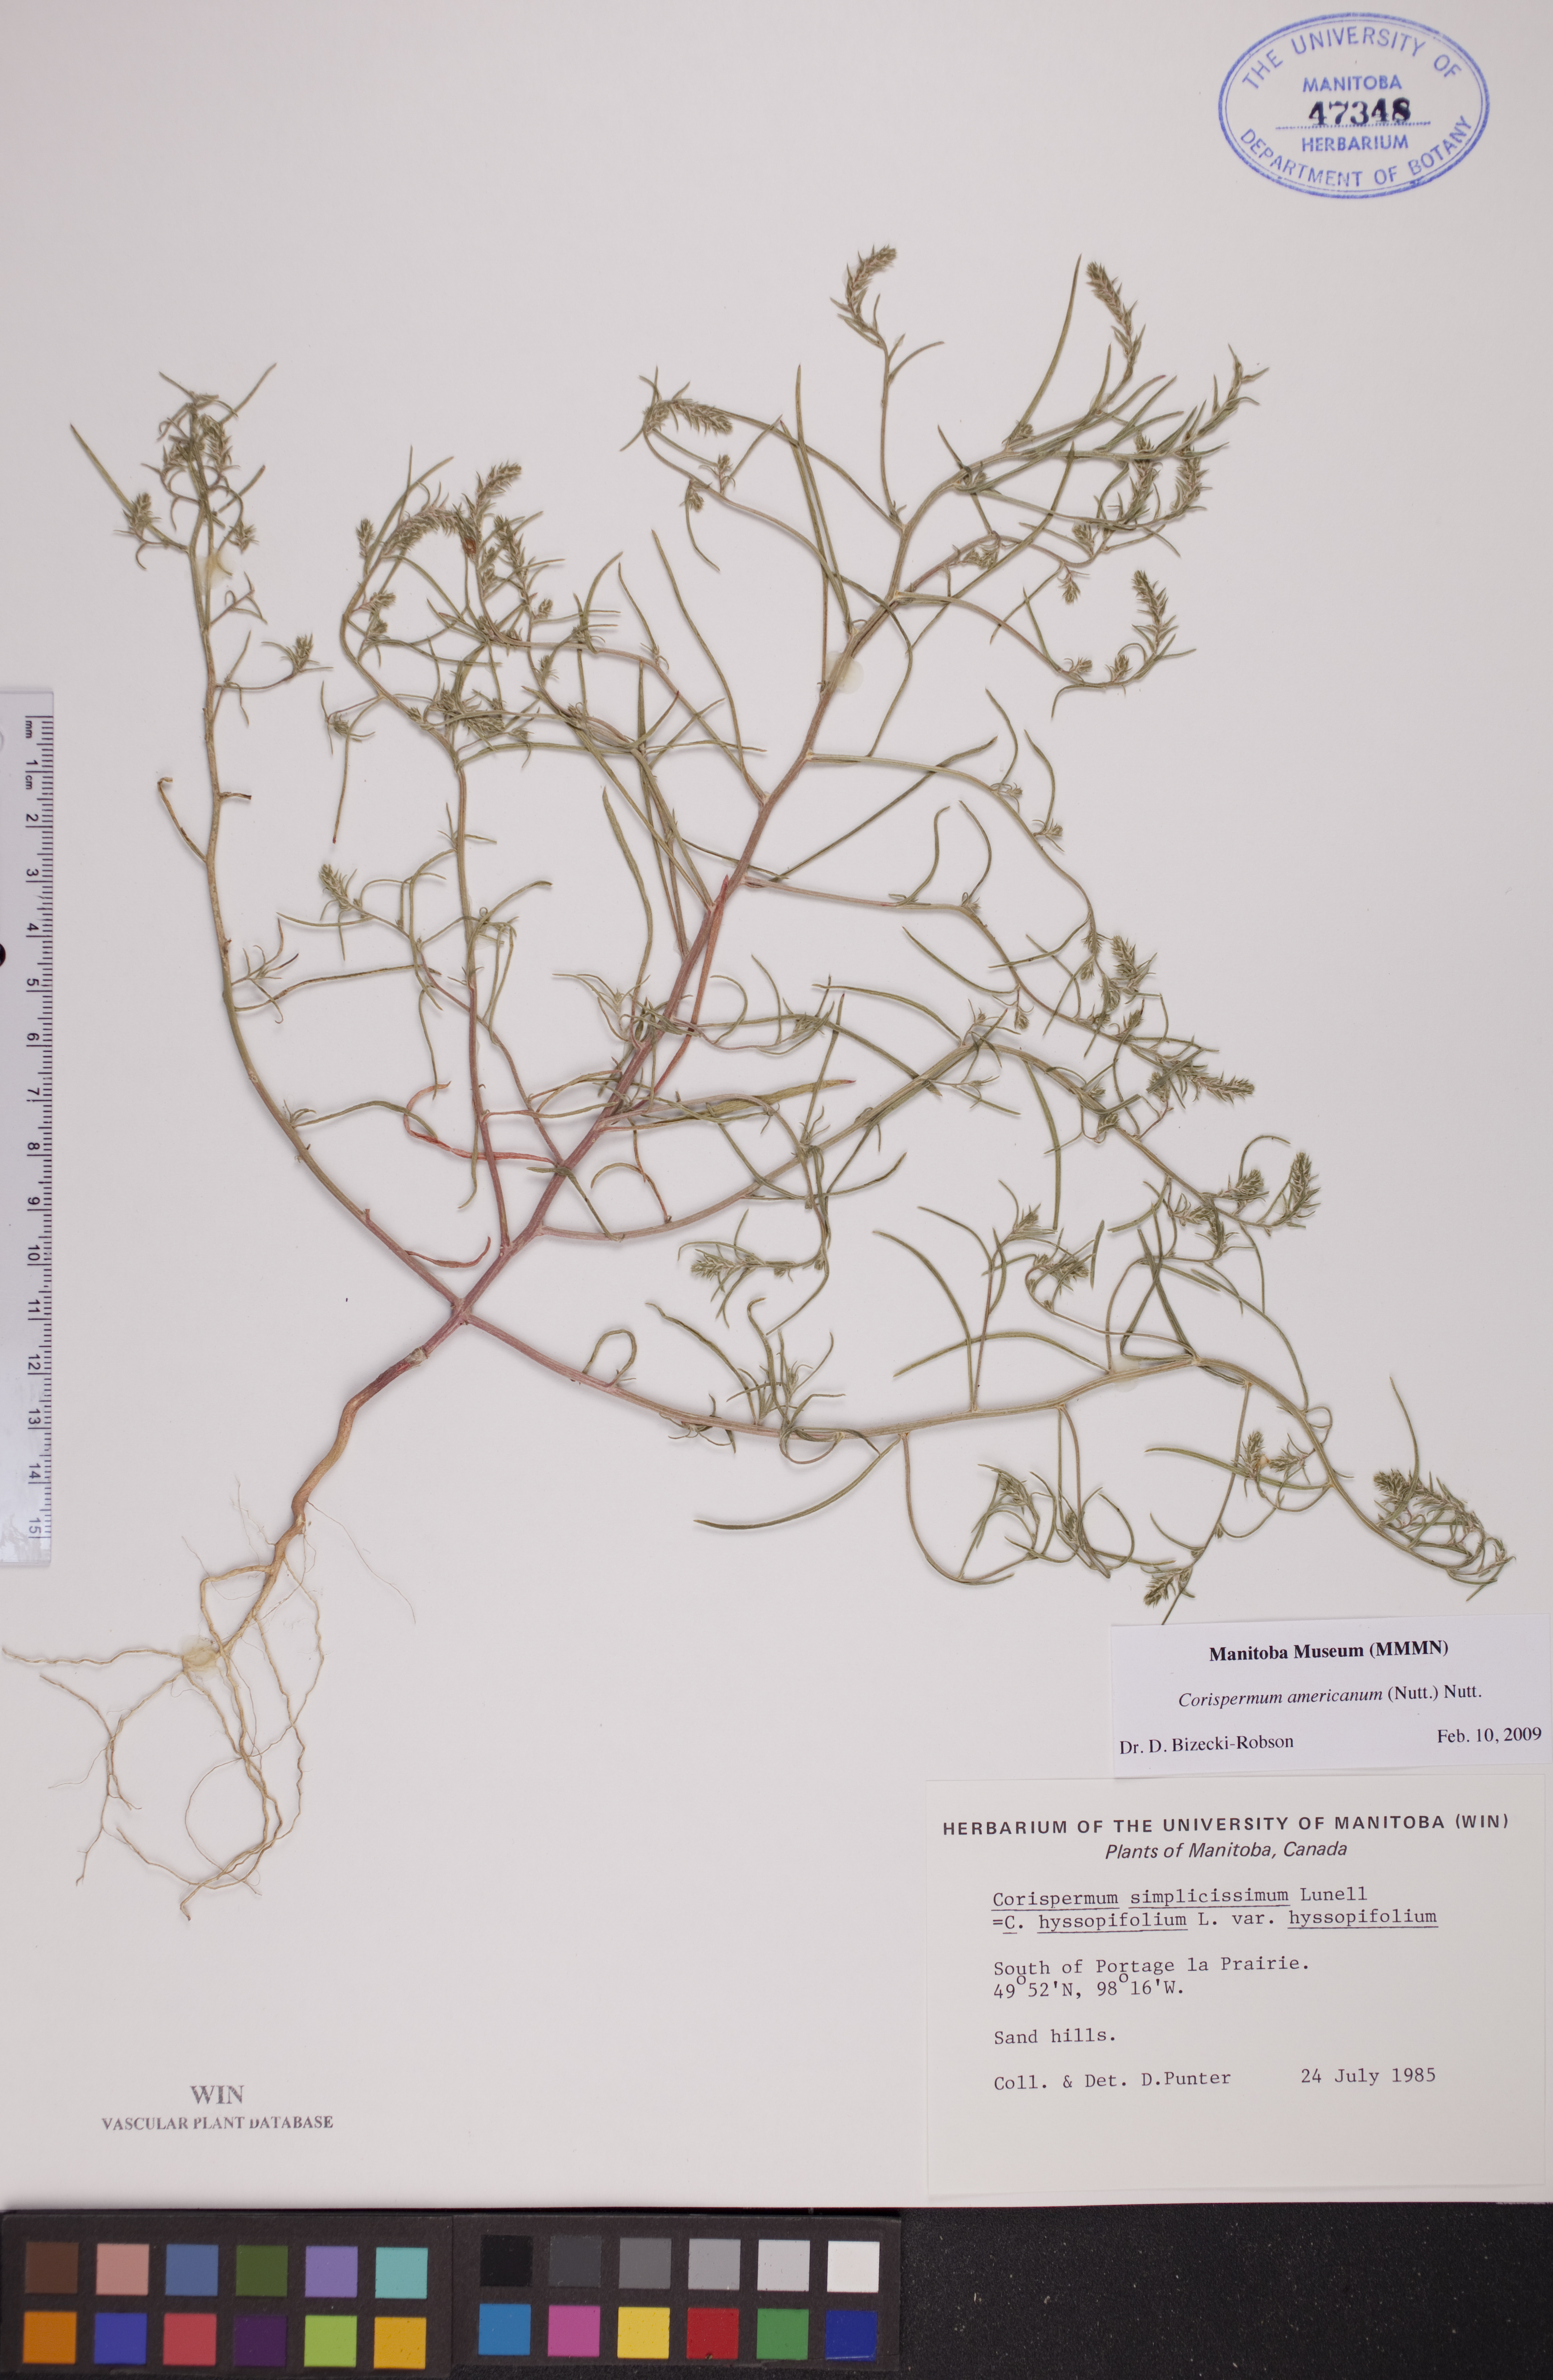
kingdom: Plantae
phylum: Tracheophyta
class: Magnoliopsida
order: Caryophyllales
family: Amaranthaceae
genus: Corispermum
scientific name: Corispermum americanum
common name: American bugseed
